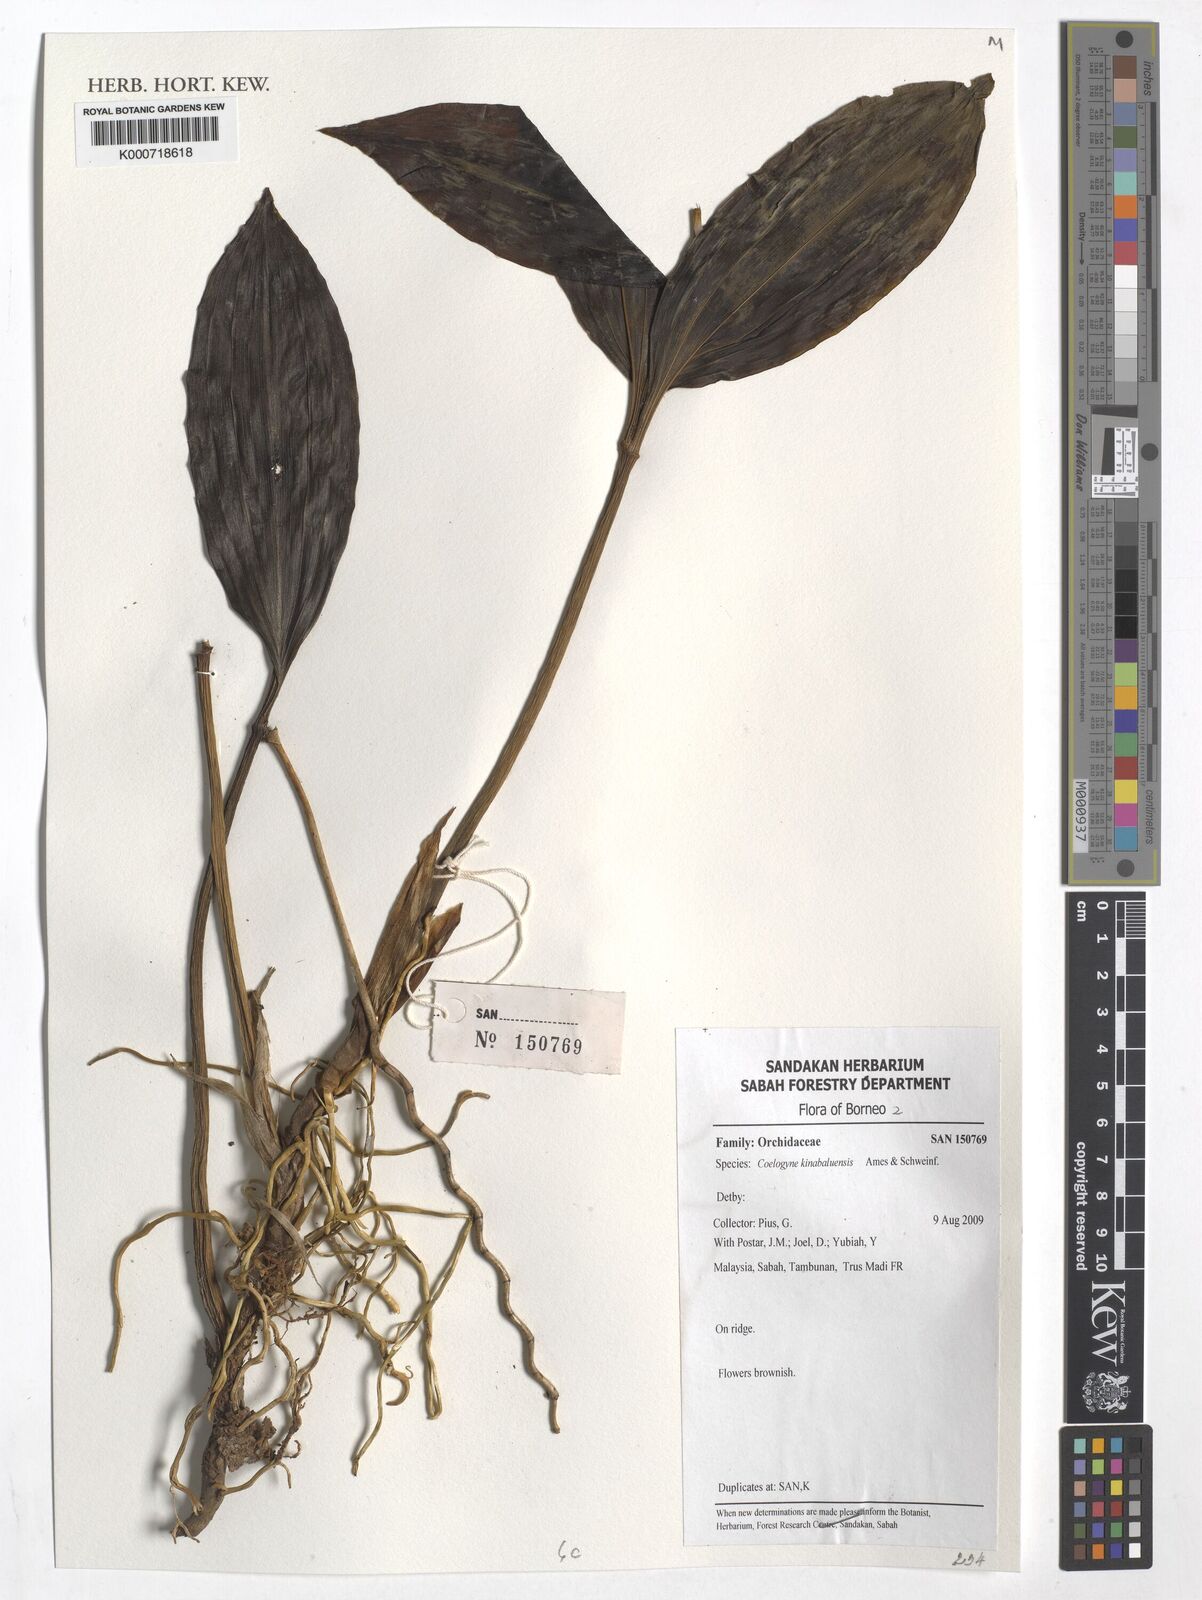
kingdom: Plantae
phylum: Tracheophyta
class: Liliopsida
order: Asparagales
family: Orchidaceae
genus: Coelogyne
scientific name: Coelogyne kinabaluensis
